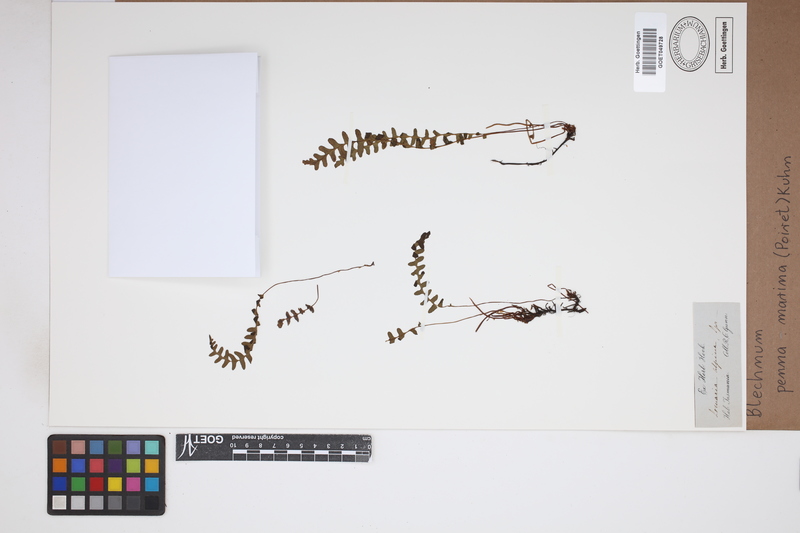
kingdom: Plantae
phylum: Tracheophyta
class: Polypodiopsida
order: Polypodiales
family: Blechnaceae
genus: Austroblechnum
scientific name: Austroblechnum penna-marina
